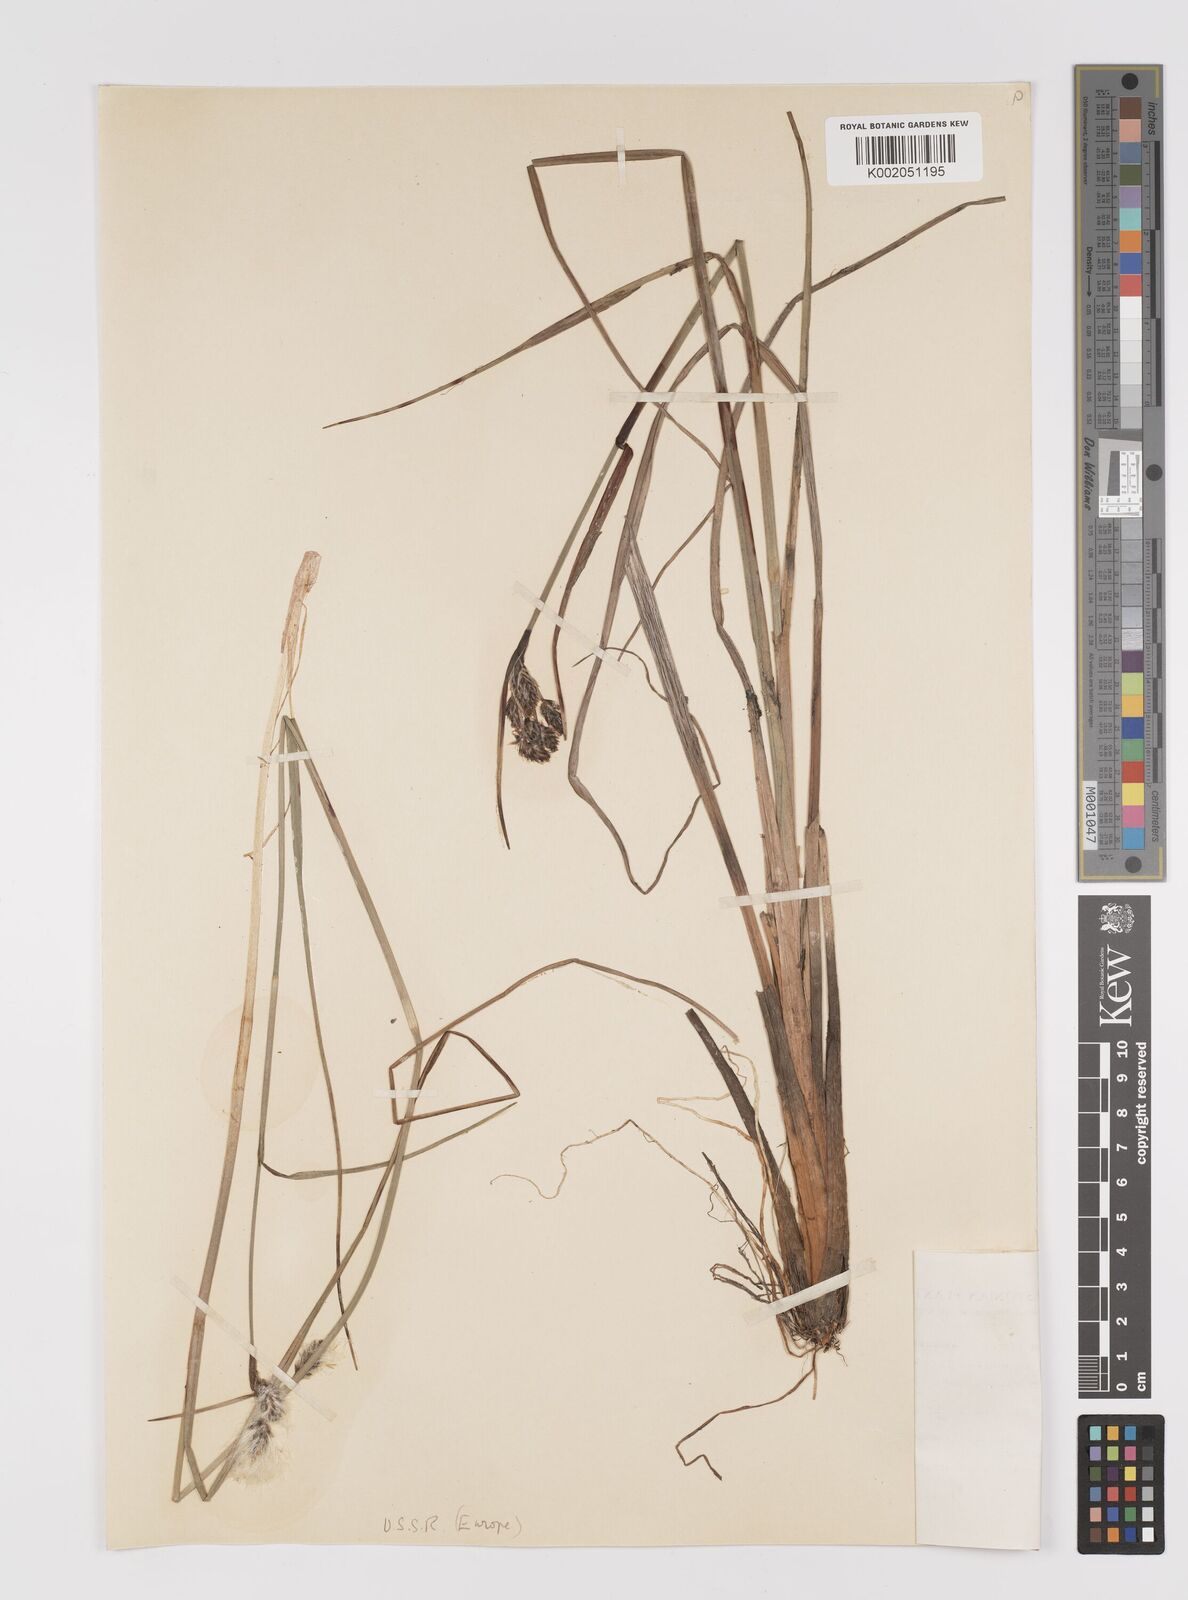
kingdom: Plantae
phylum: Tracheophyta
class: Liliopsida
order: Poales
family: Cyperaceae
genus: Eriophorum
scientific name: Eriophorum latifolium
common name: Broad-leaved cottongrass
